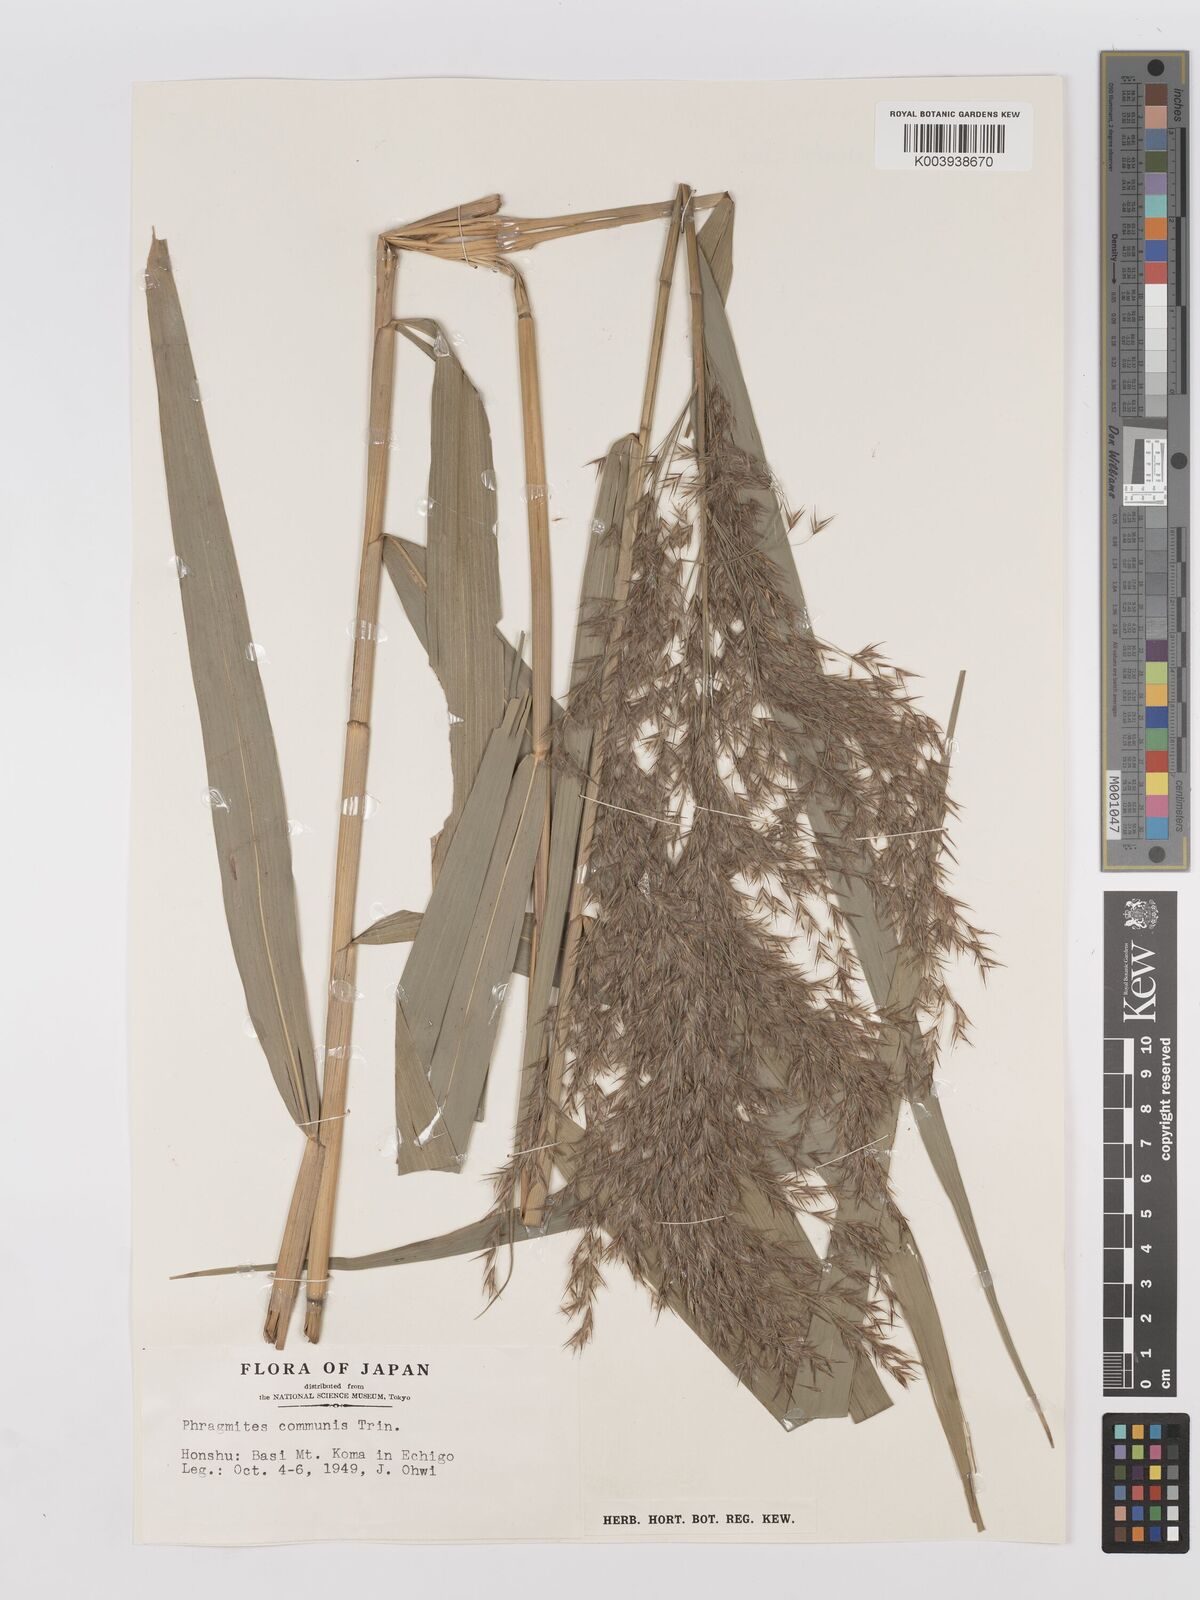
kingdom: Plantae
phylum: Tracheophyta
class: Liliopsida
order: Poales
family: Poaceae
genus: Phragmites
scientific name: Phragmites australis
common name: Common reed
